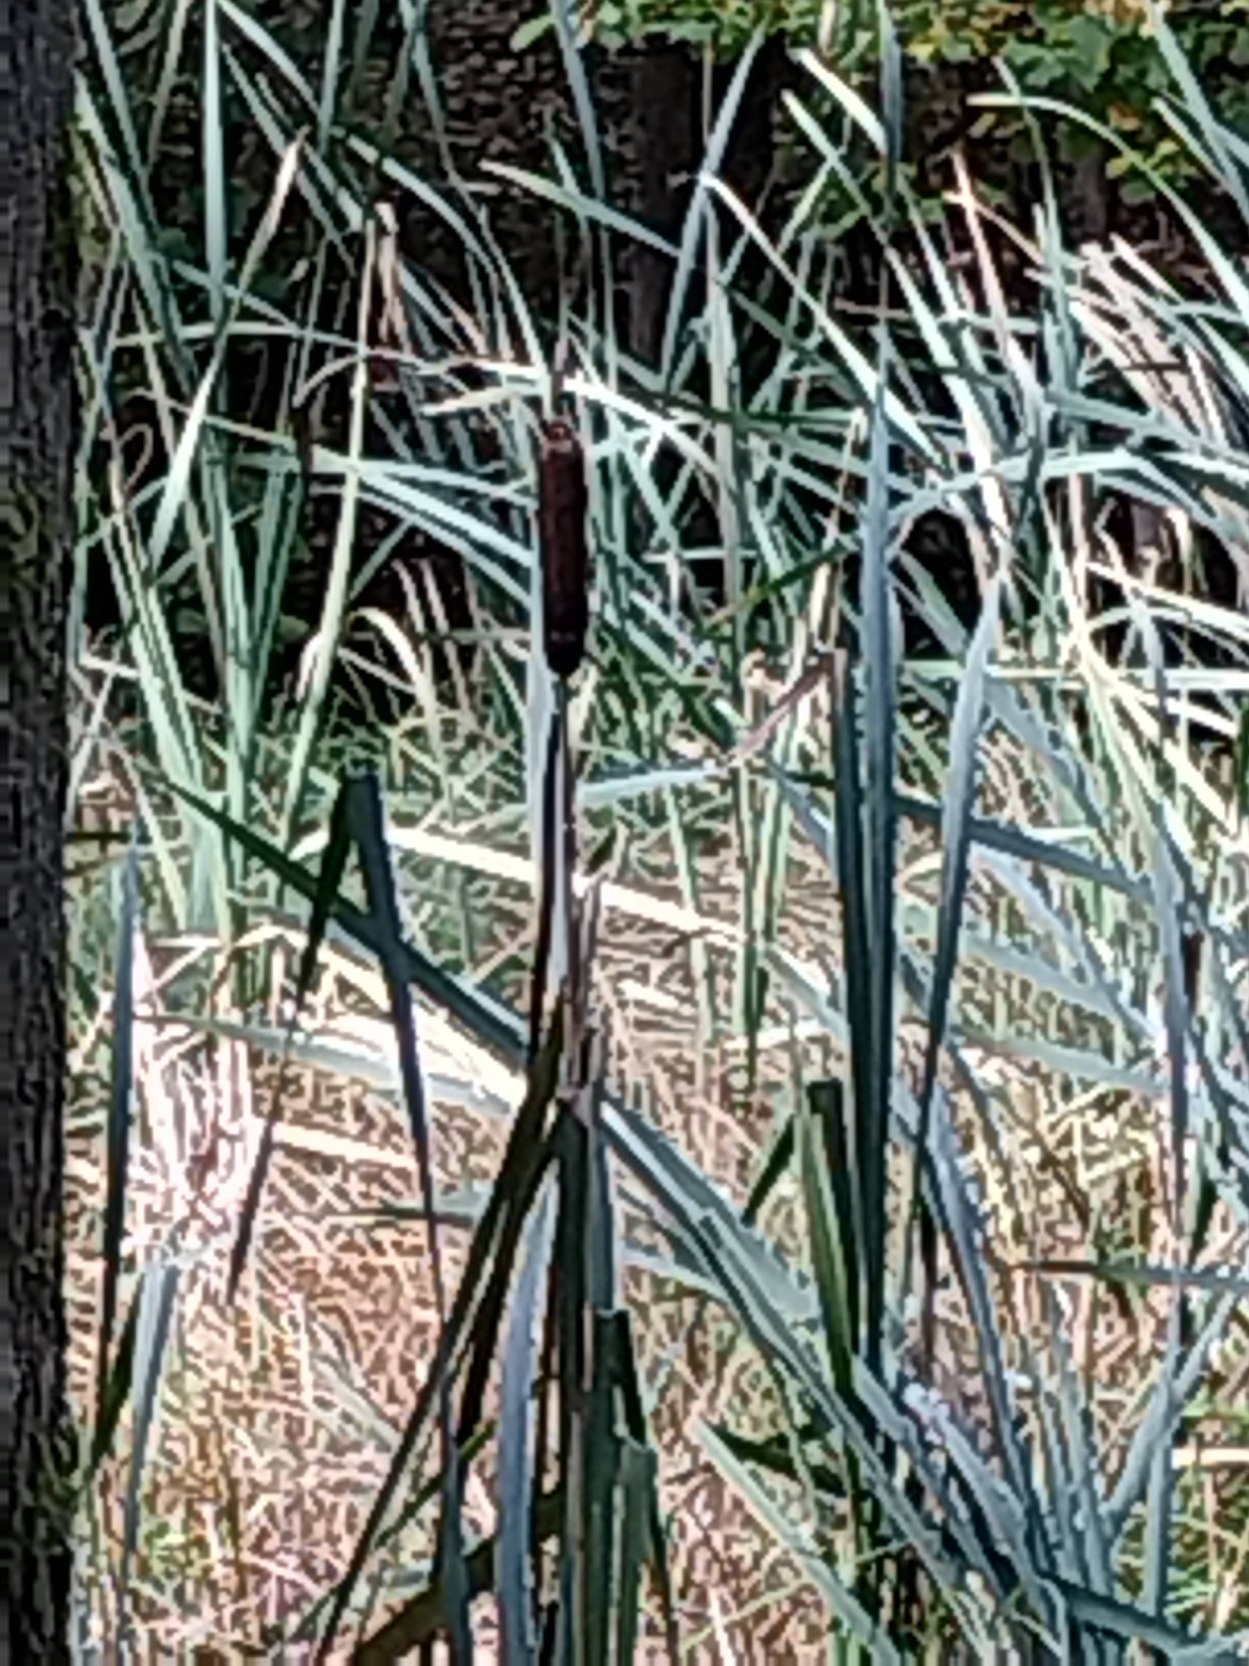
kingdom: Plantae
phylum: Tracheophyta
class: Liliopsida
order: Poales
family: Typhaceae
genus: Typha
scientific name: Typha latifolia
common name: Bredbladet dunhammer
